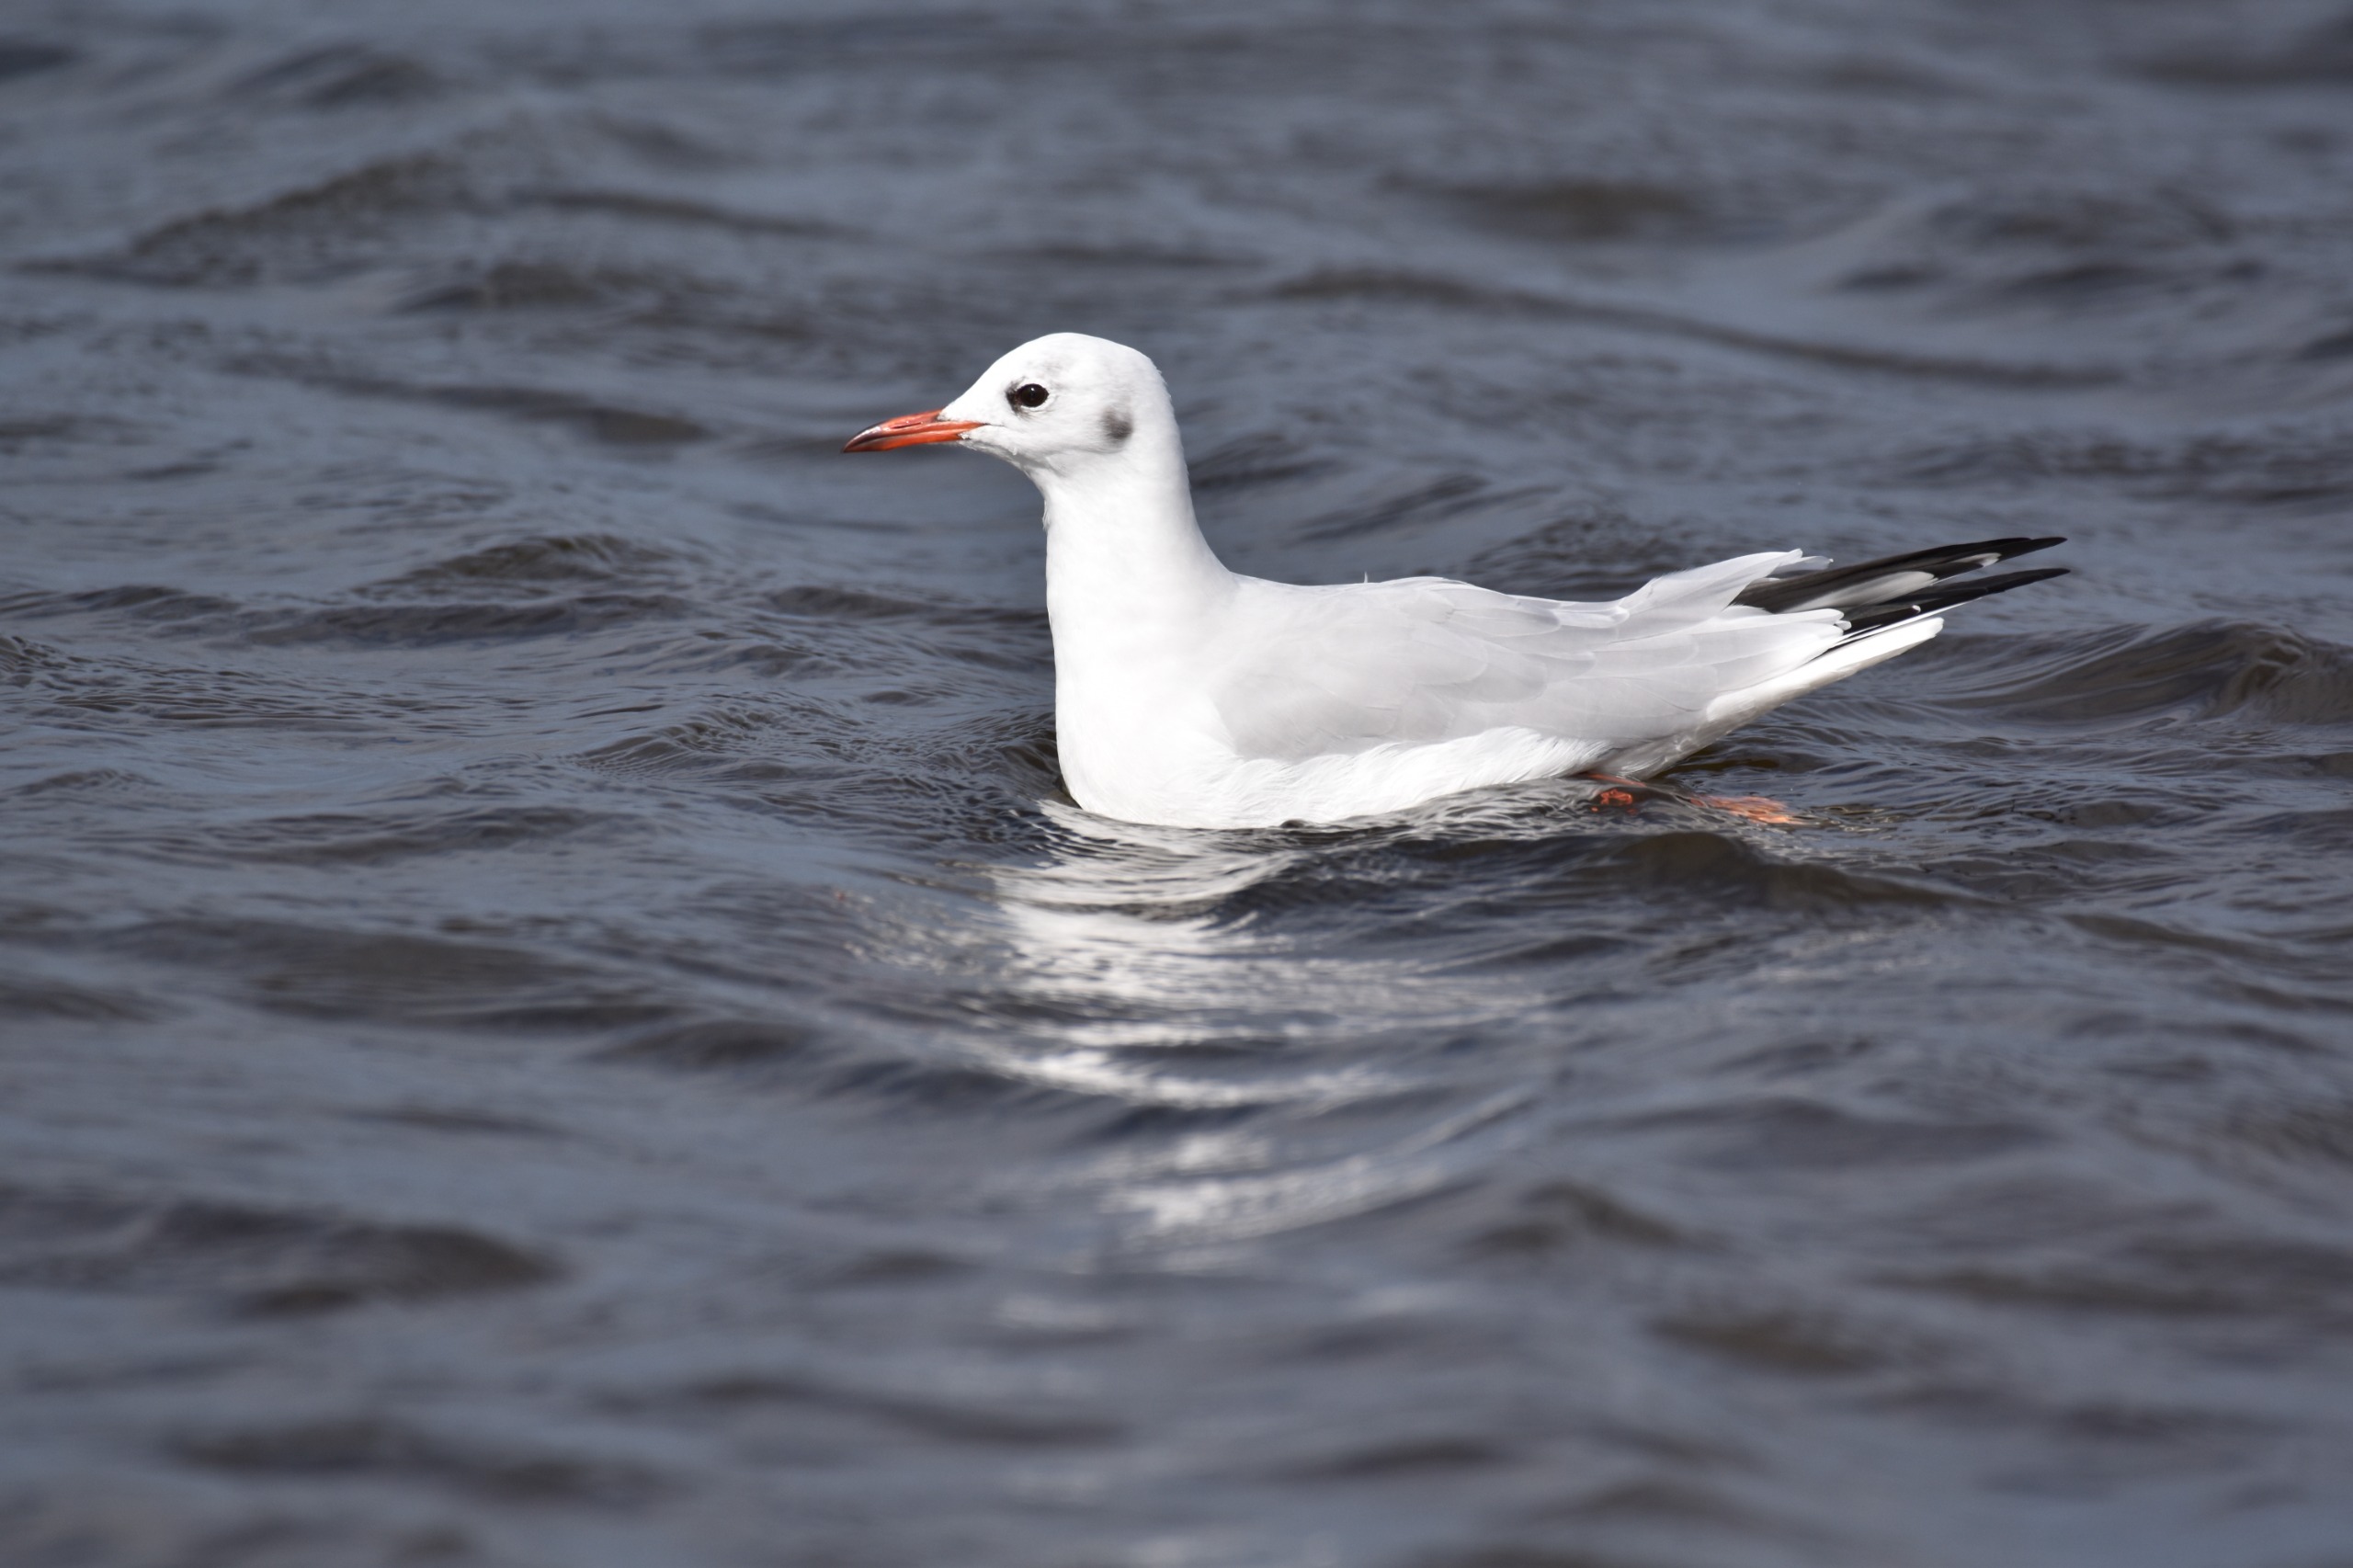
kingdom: Animalia
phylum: Chordata
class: Aves
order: Charadriiformes
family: Laridae
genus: Chroicocephalus
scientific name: Chroicocephalus ridibundus
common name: Hættemåge
